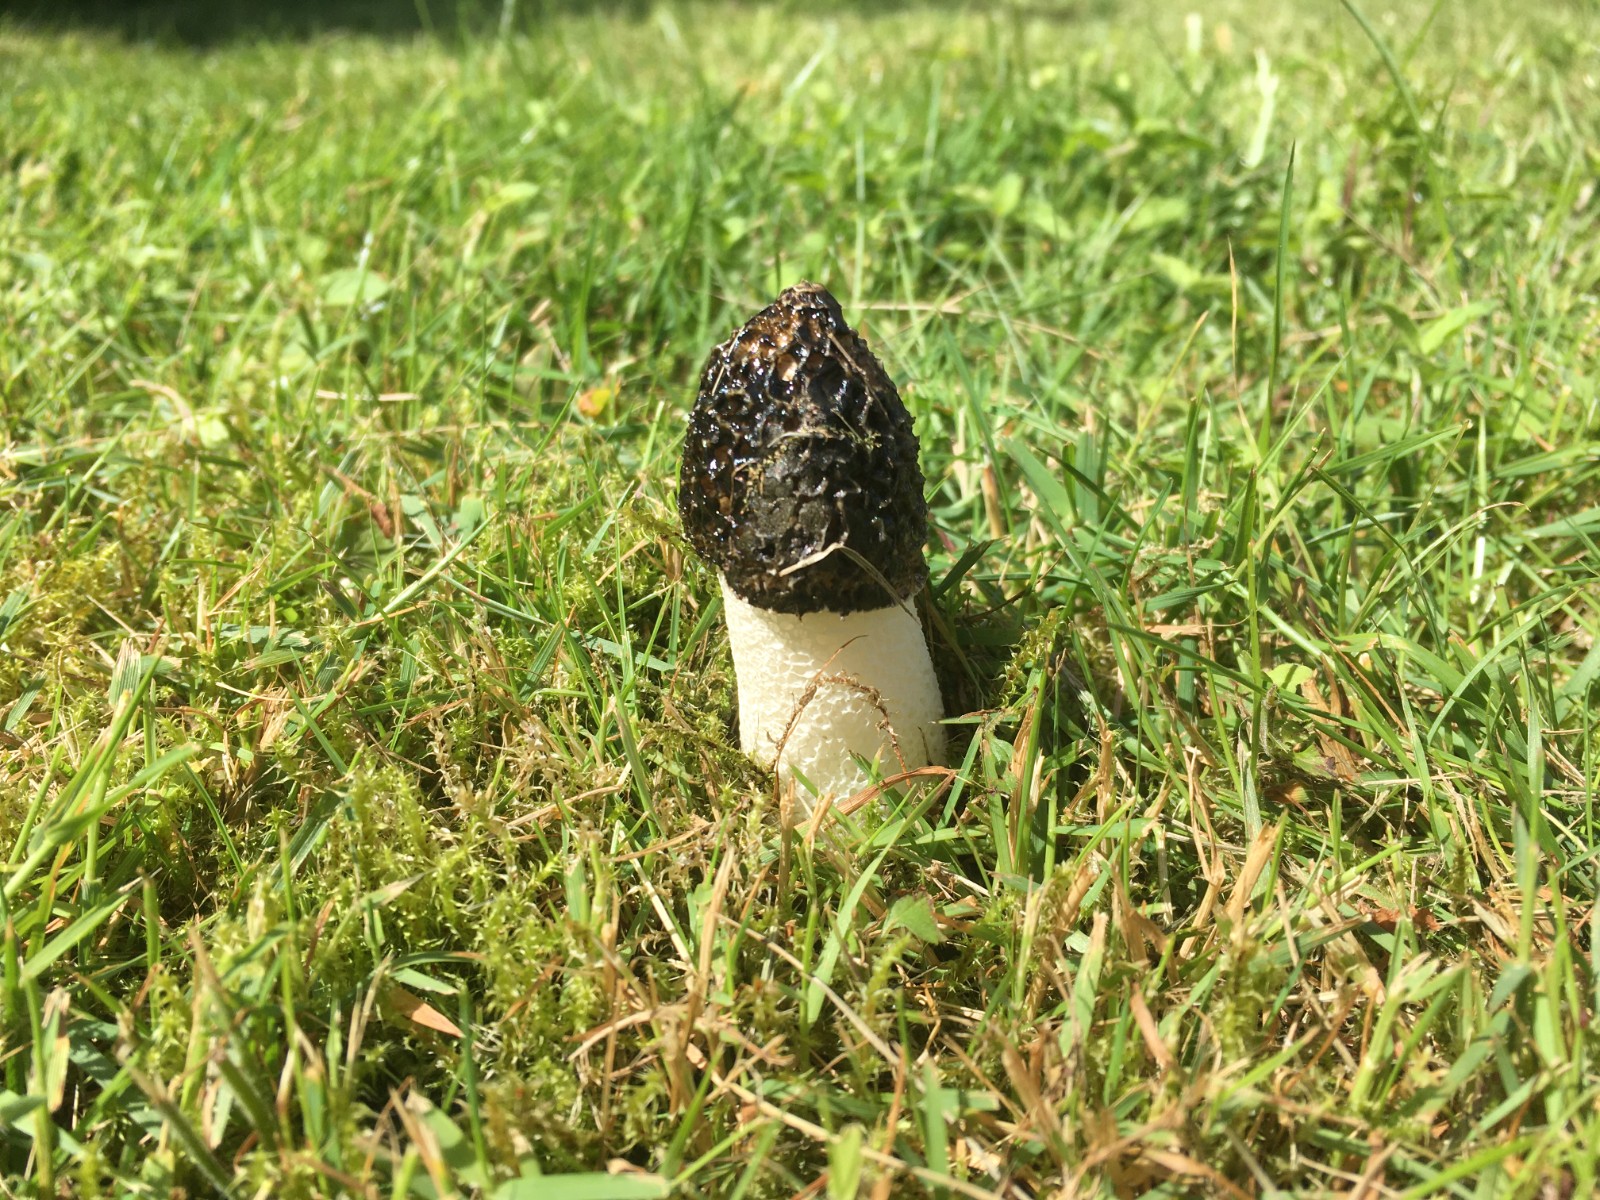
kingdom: Fungi
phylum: Basidiomycota
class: Agaricomycetes
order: Phallales
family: Phallaceae
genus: Phallus
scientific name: Phallus impudicus
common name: almindelig stinksvamp
